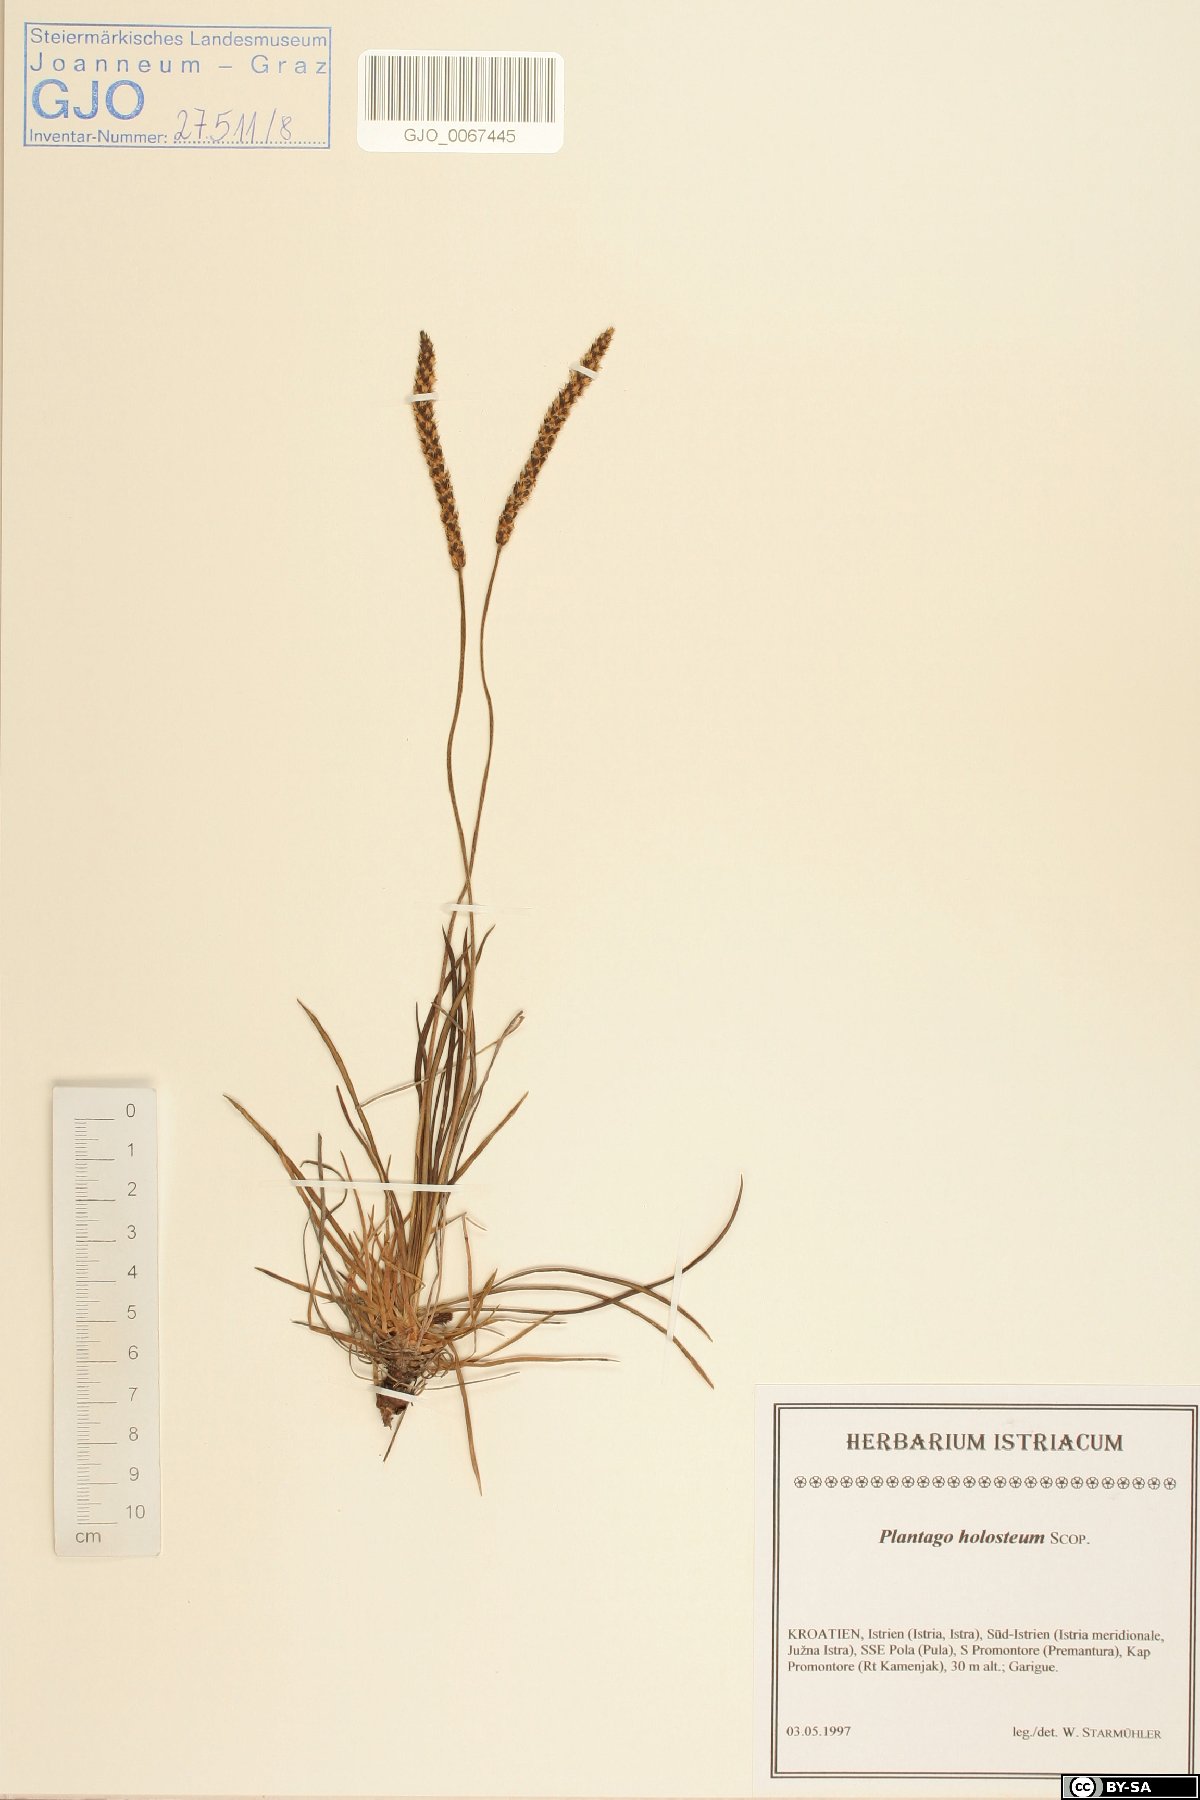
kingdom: Plantae
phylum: Tracheophyta
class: Magnoliopsida
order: Lamiales
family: Plantaginaceae
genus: Plantago
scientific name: Plantago subulata
